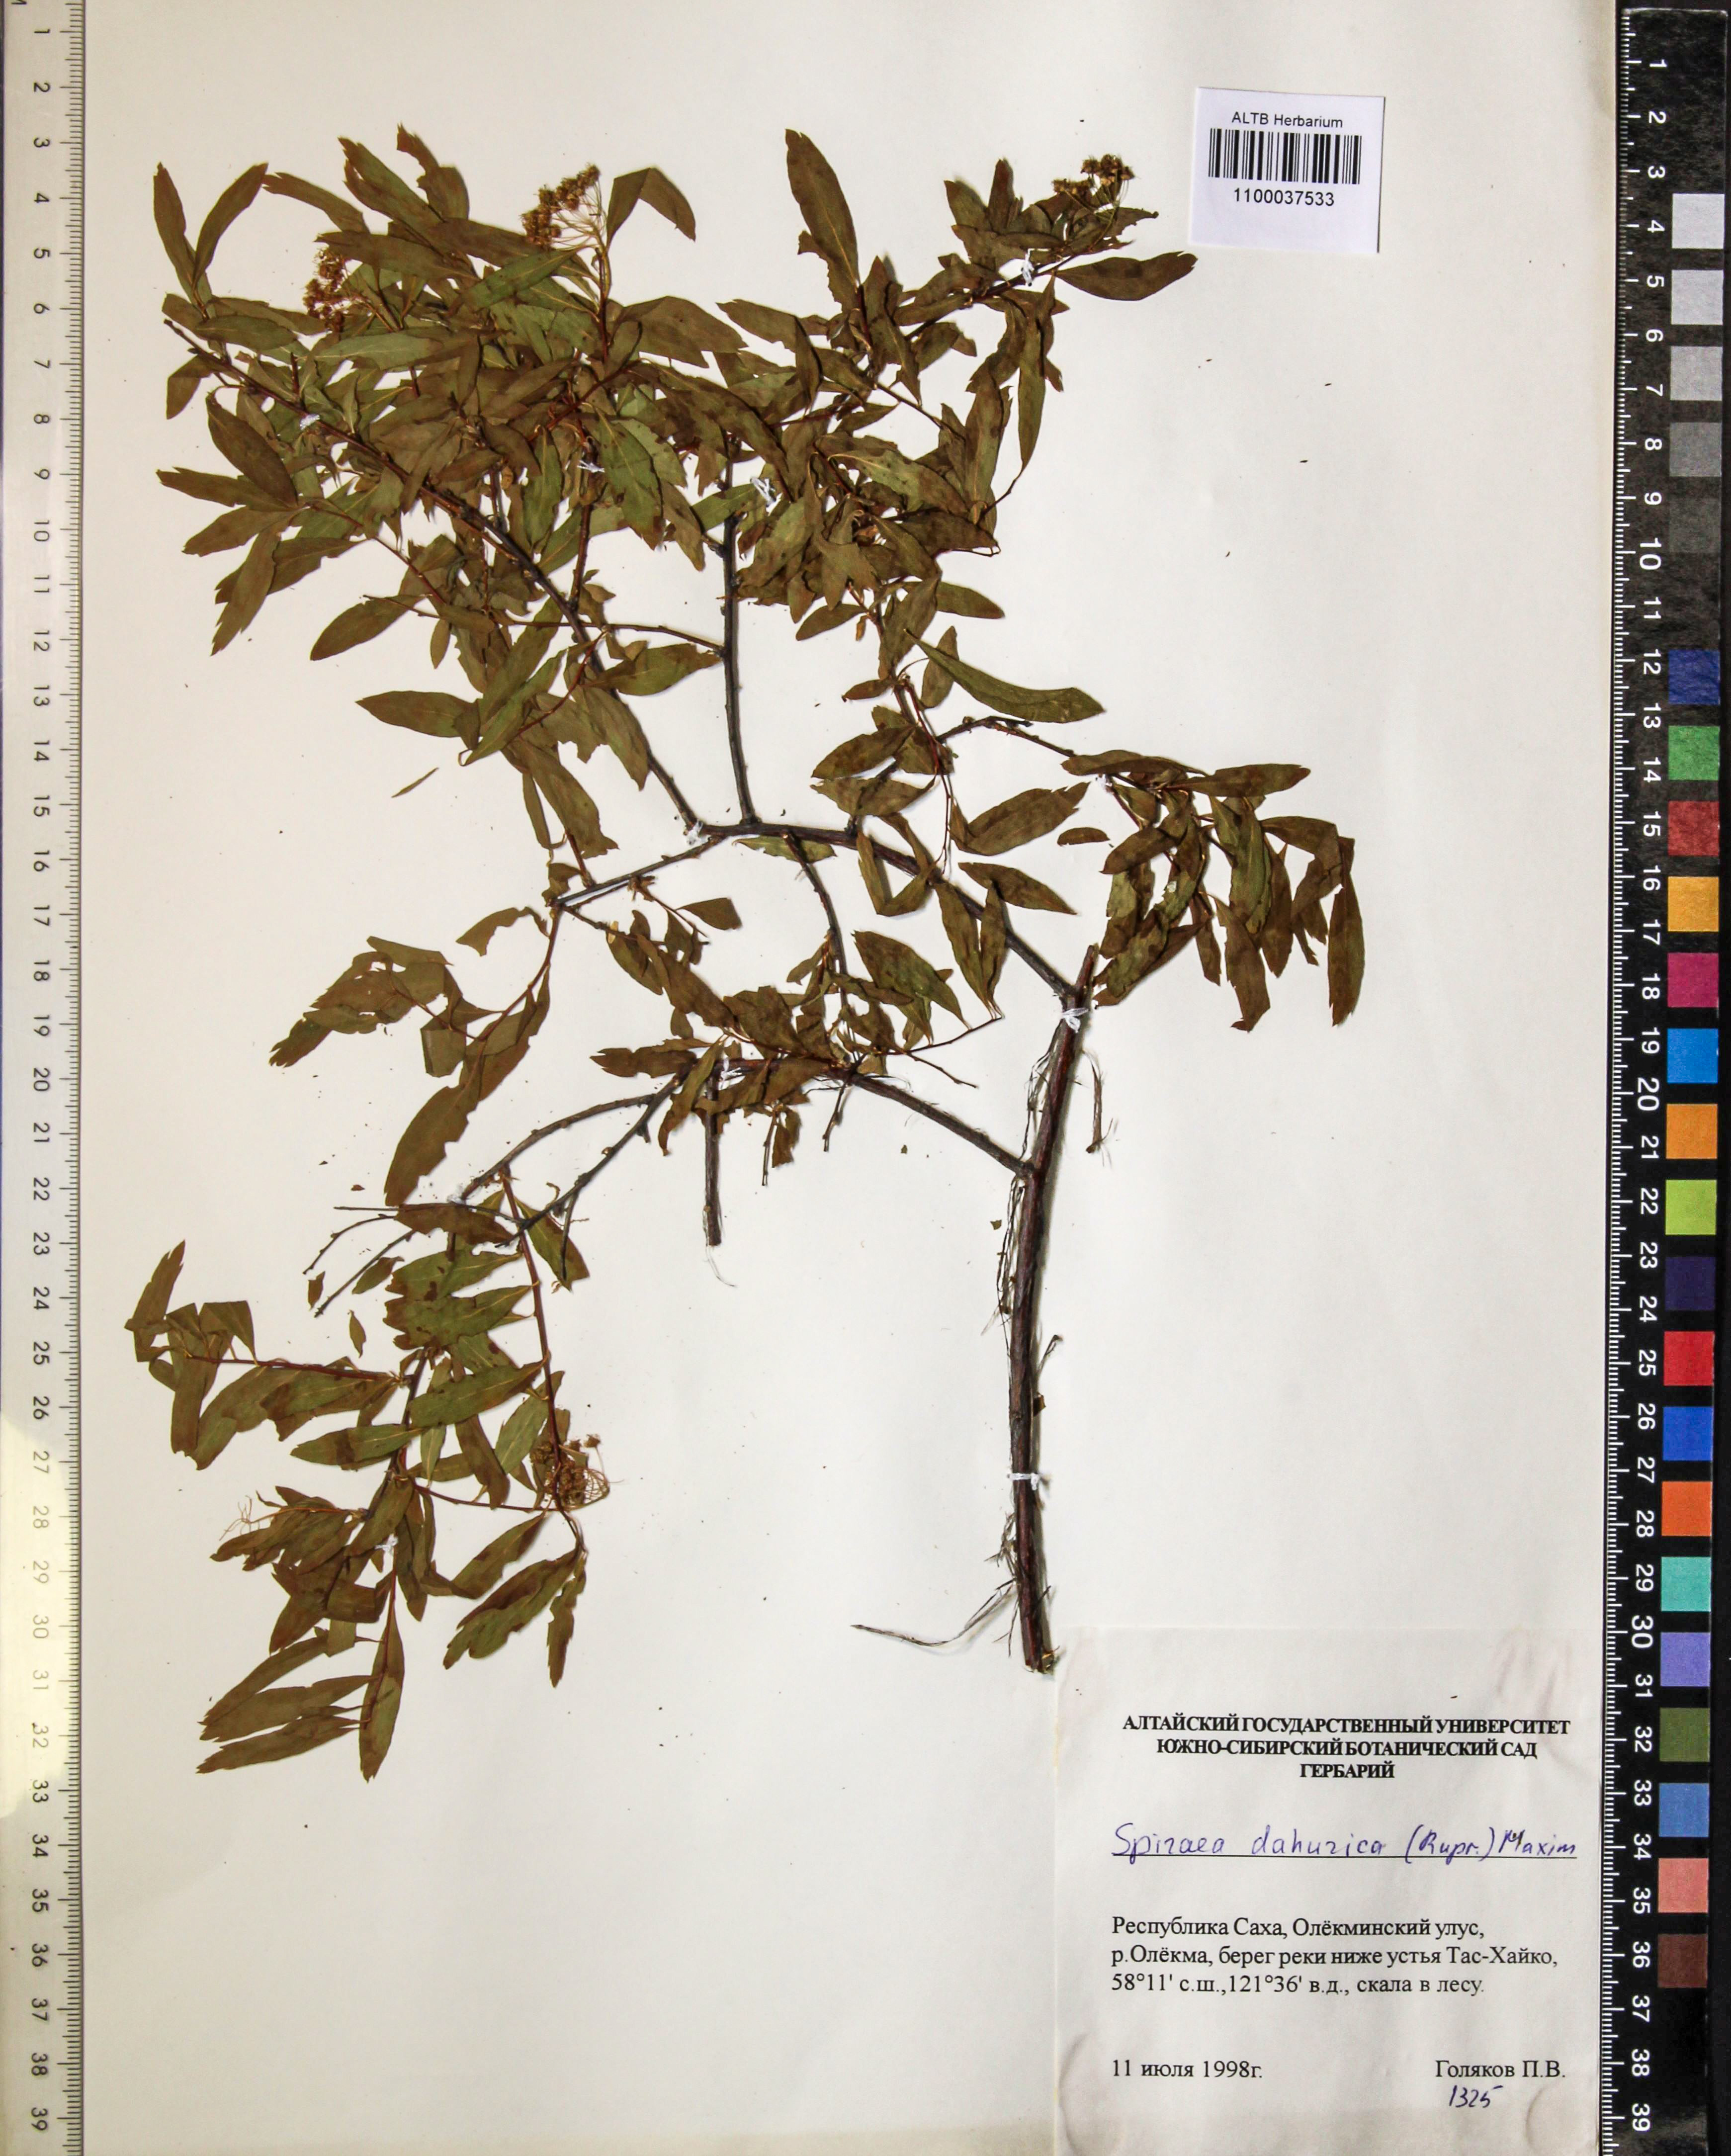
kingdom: Plantae
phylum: Tracheophyta
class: Magnoliopsida
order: Rosales
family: Rosaceae
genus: Spiraea
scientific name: Spiraea dahurica
